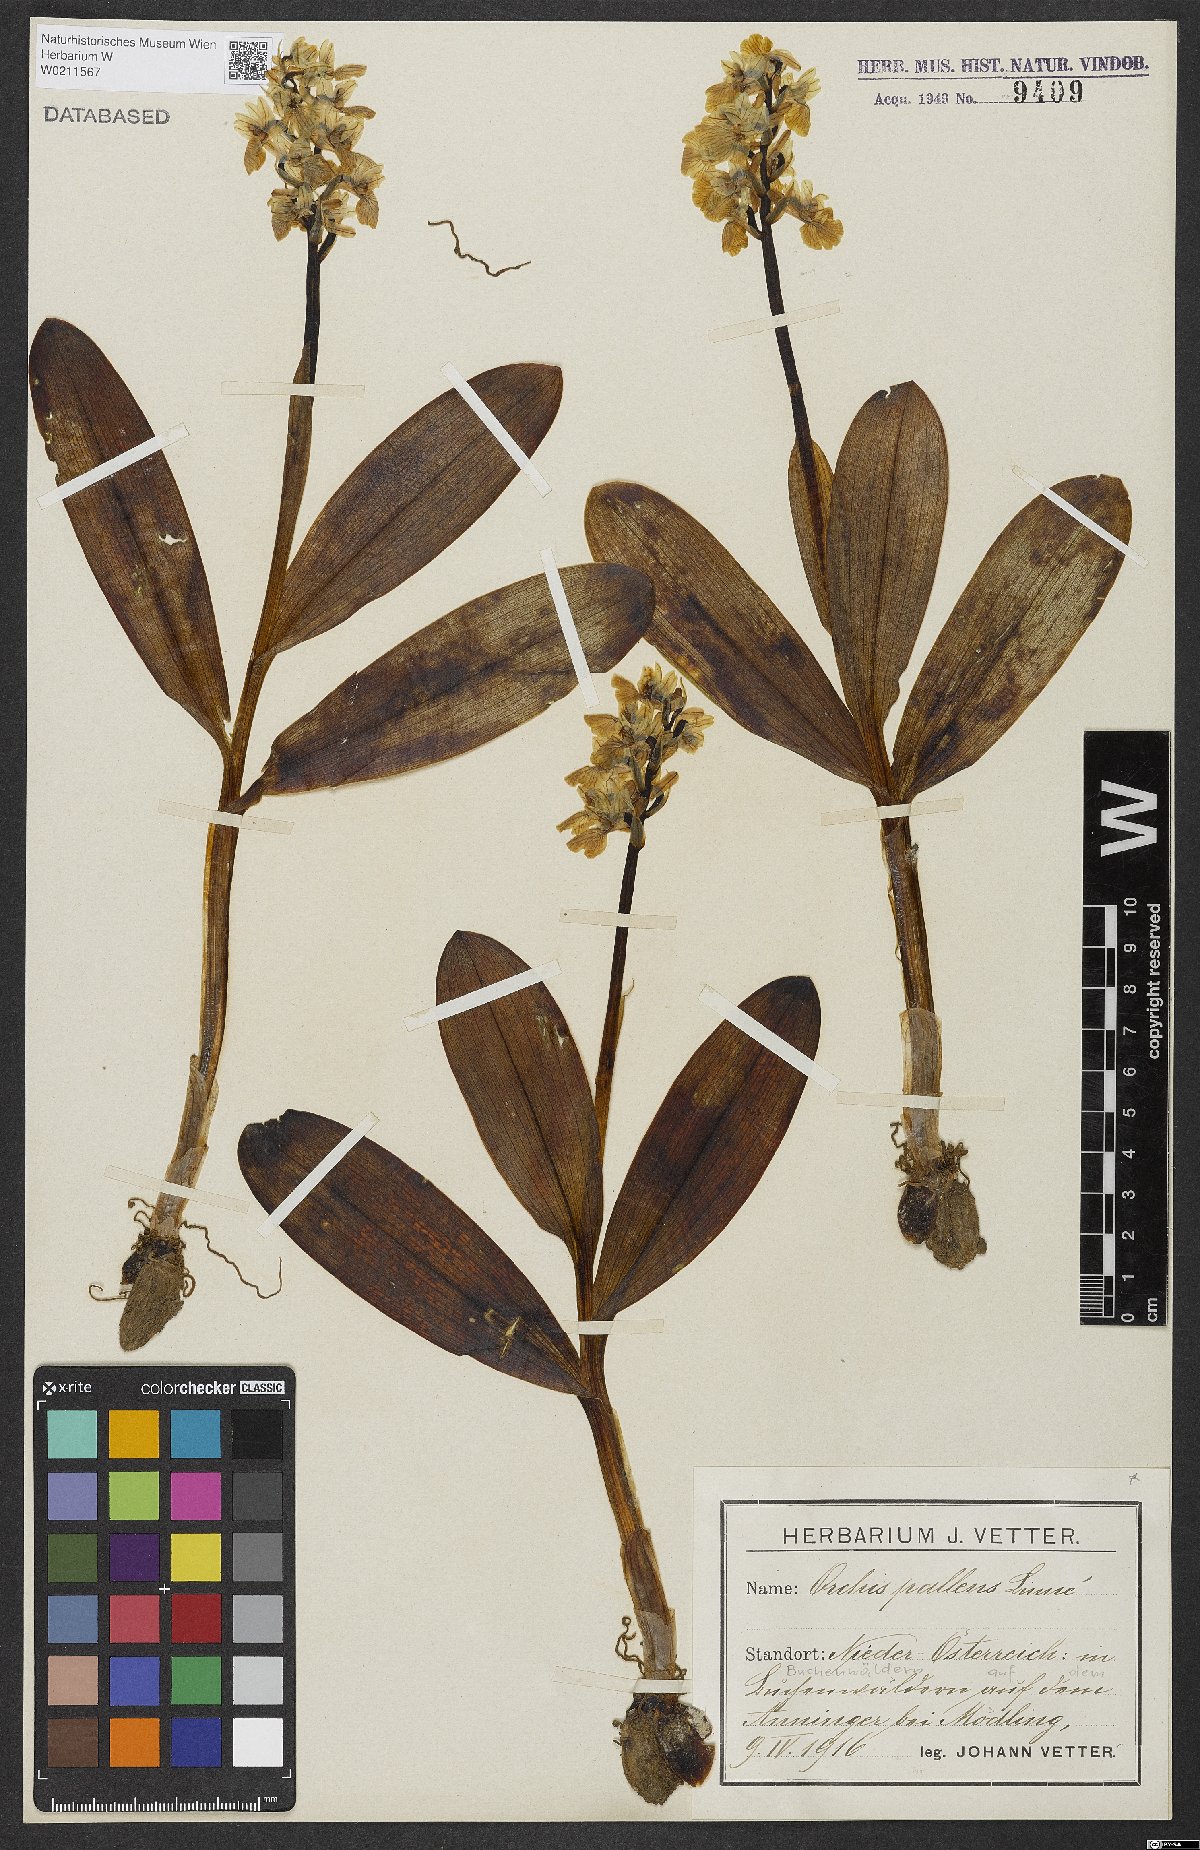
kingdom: Plantae
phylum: Tracheophyta
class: Liliopsida
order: Asparagales
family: Orchidaceae
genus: Orchis
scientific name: Orchis pallens
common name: Pale-flowered orchid
